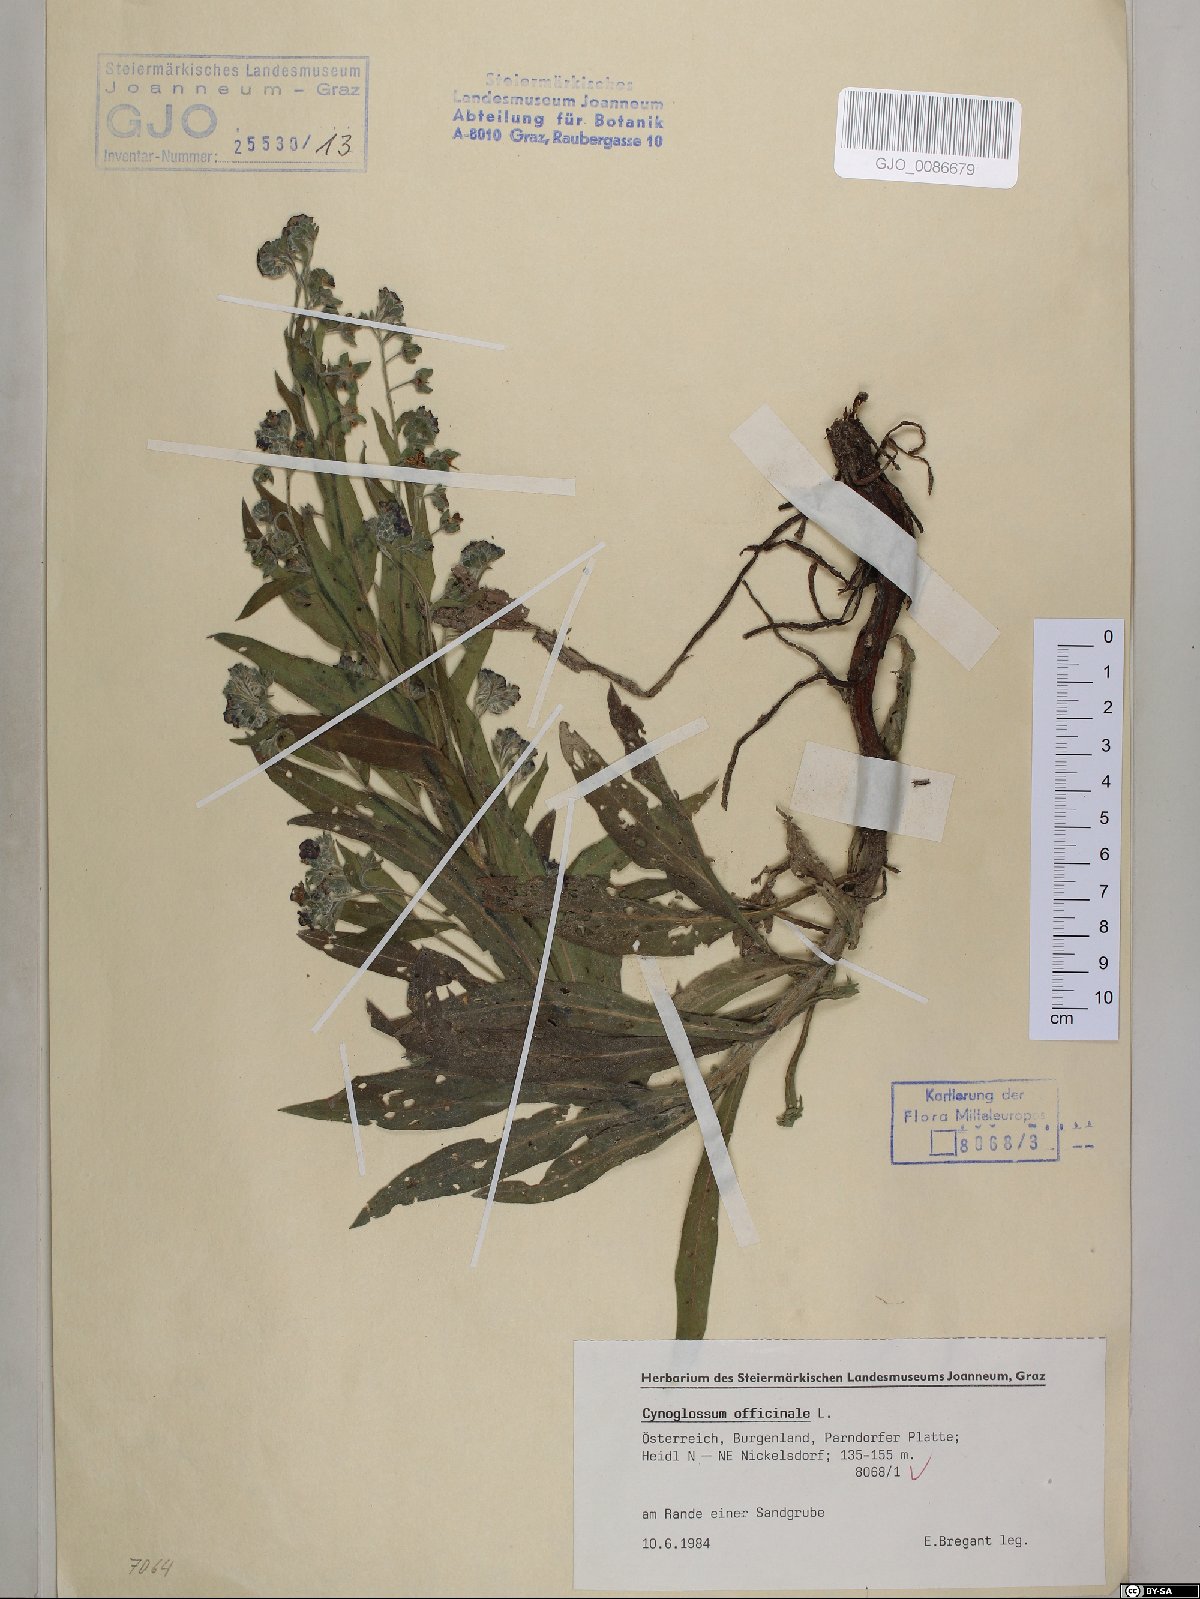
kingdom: Plantae
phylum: Tracheophyta
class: Magnoliopsida
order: Boraginales
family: Boraginaceae
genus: Cynoglossum
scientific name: Cynoglossum officinale
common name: Hound's-tongue
